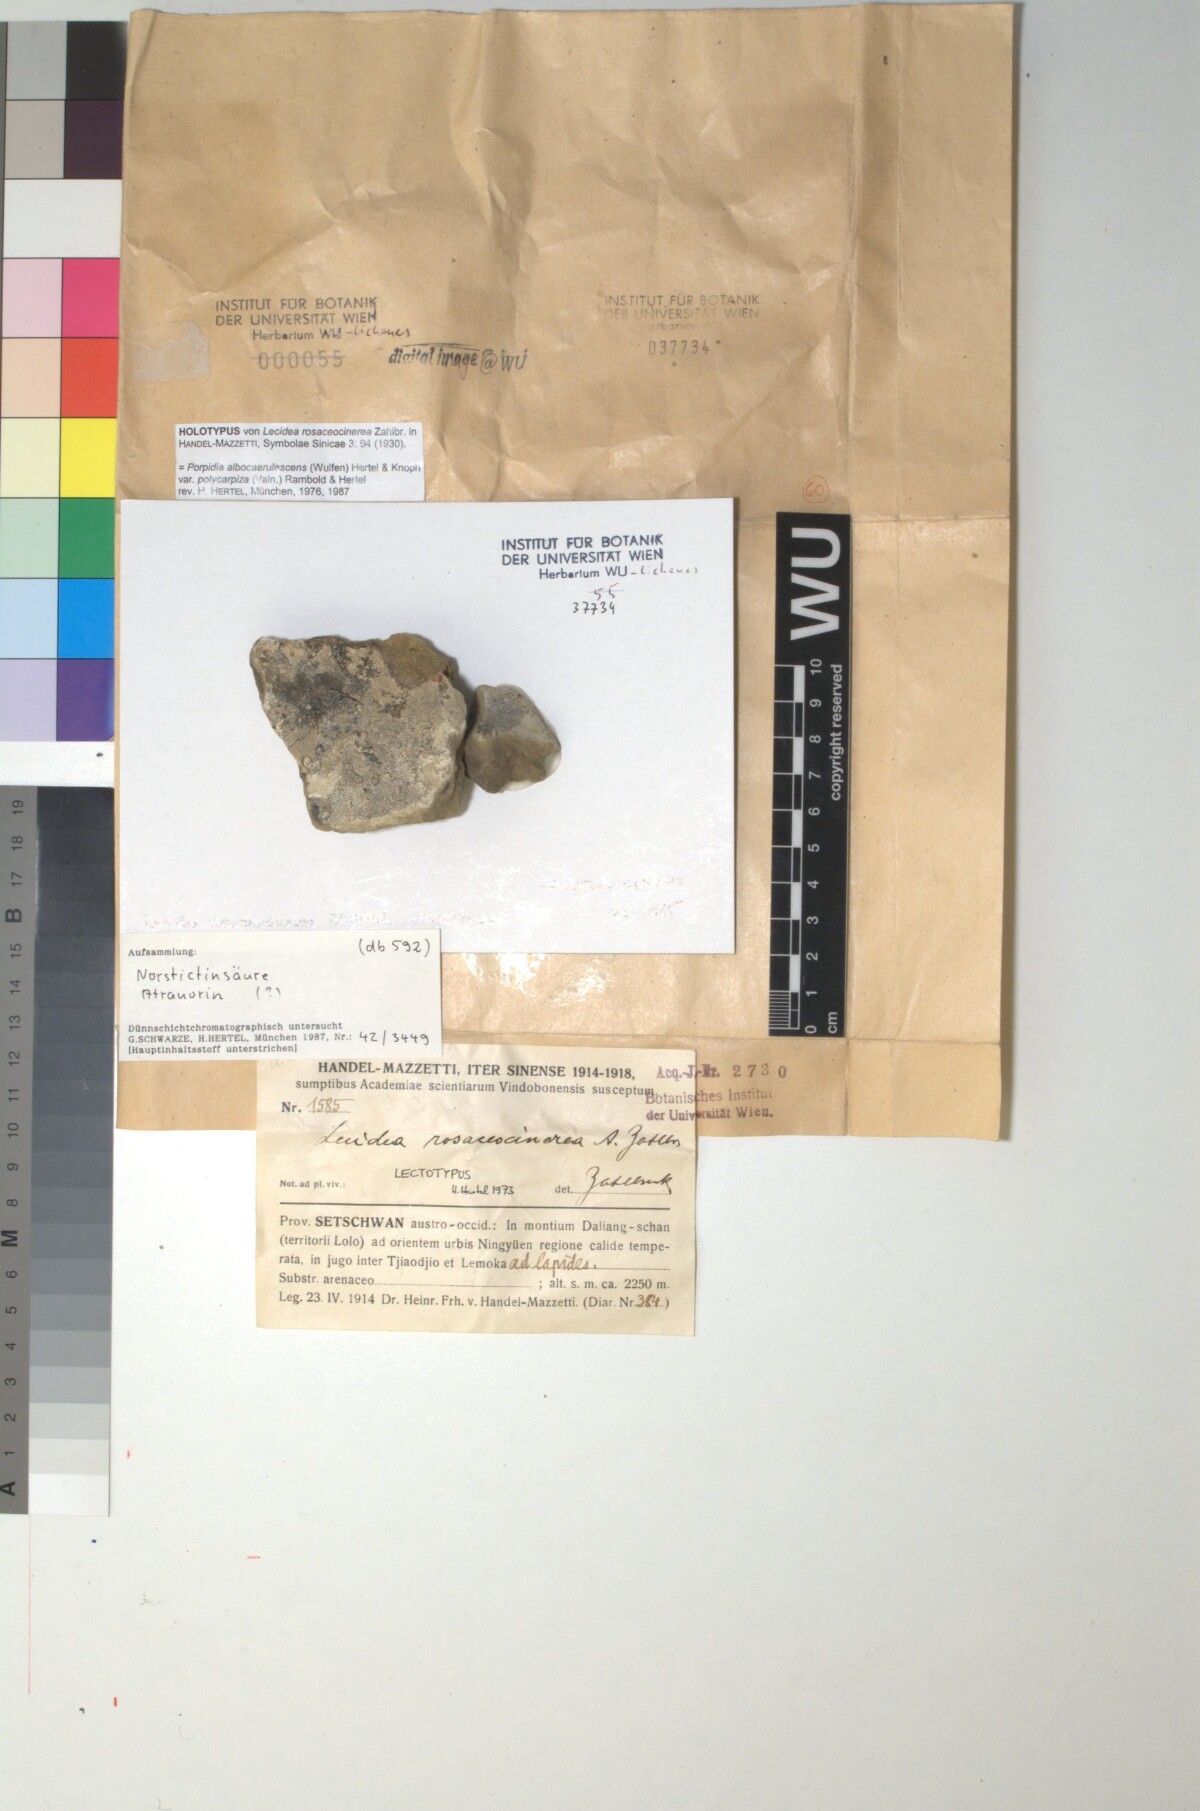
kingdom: Fungi
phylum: Ascomycota
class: Lecanoromycetes
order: Lecideales
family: Lecideaceae
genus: Lecidea
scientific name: Lecidea
